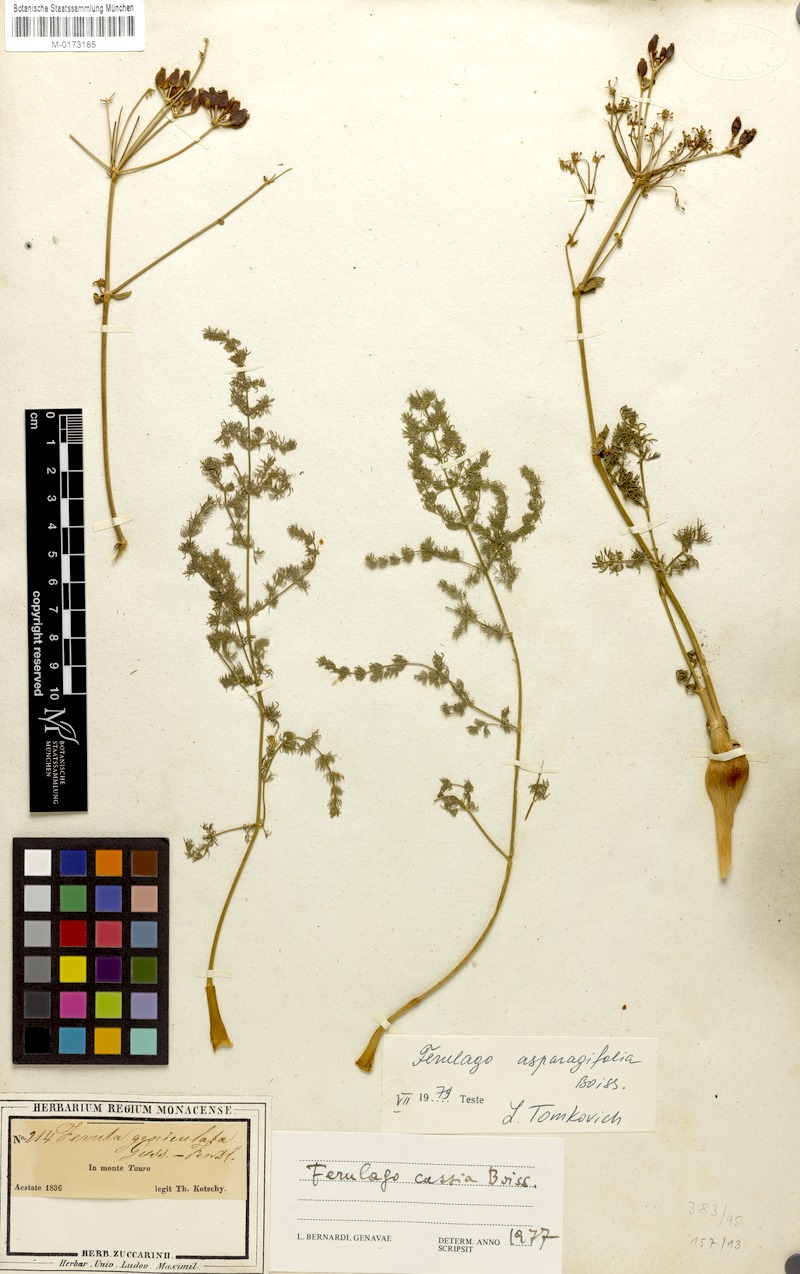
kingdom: Plantae
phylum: Tracheophyta
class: Magnoliopsida
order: Apiales
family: Apiaceae
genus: Ferulago
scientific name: Ferulago asparagifolia
